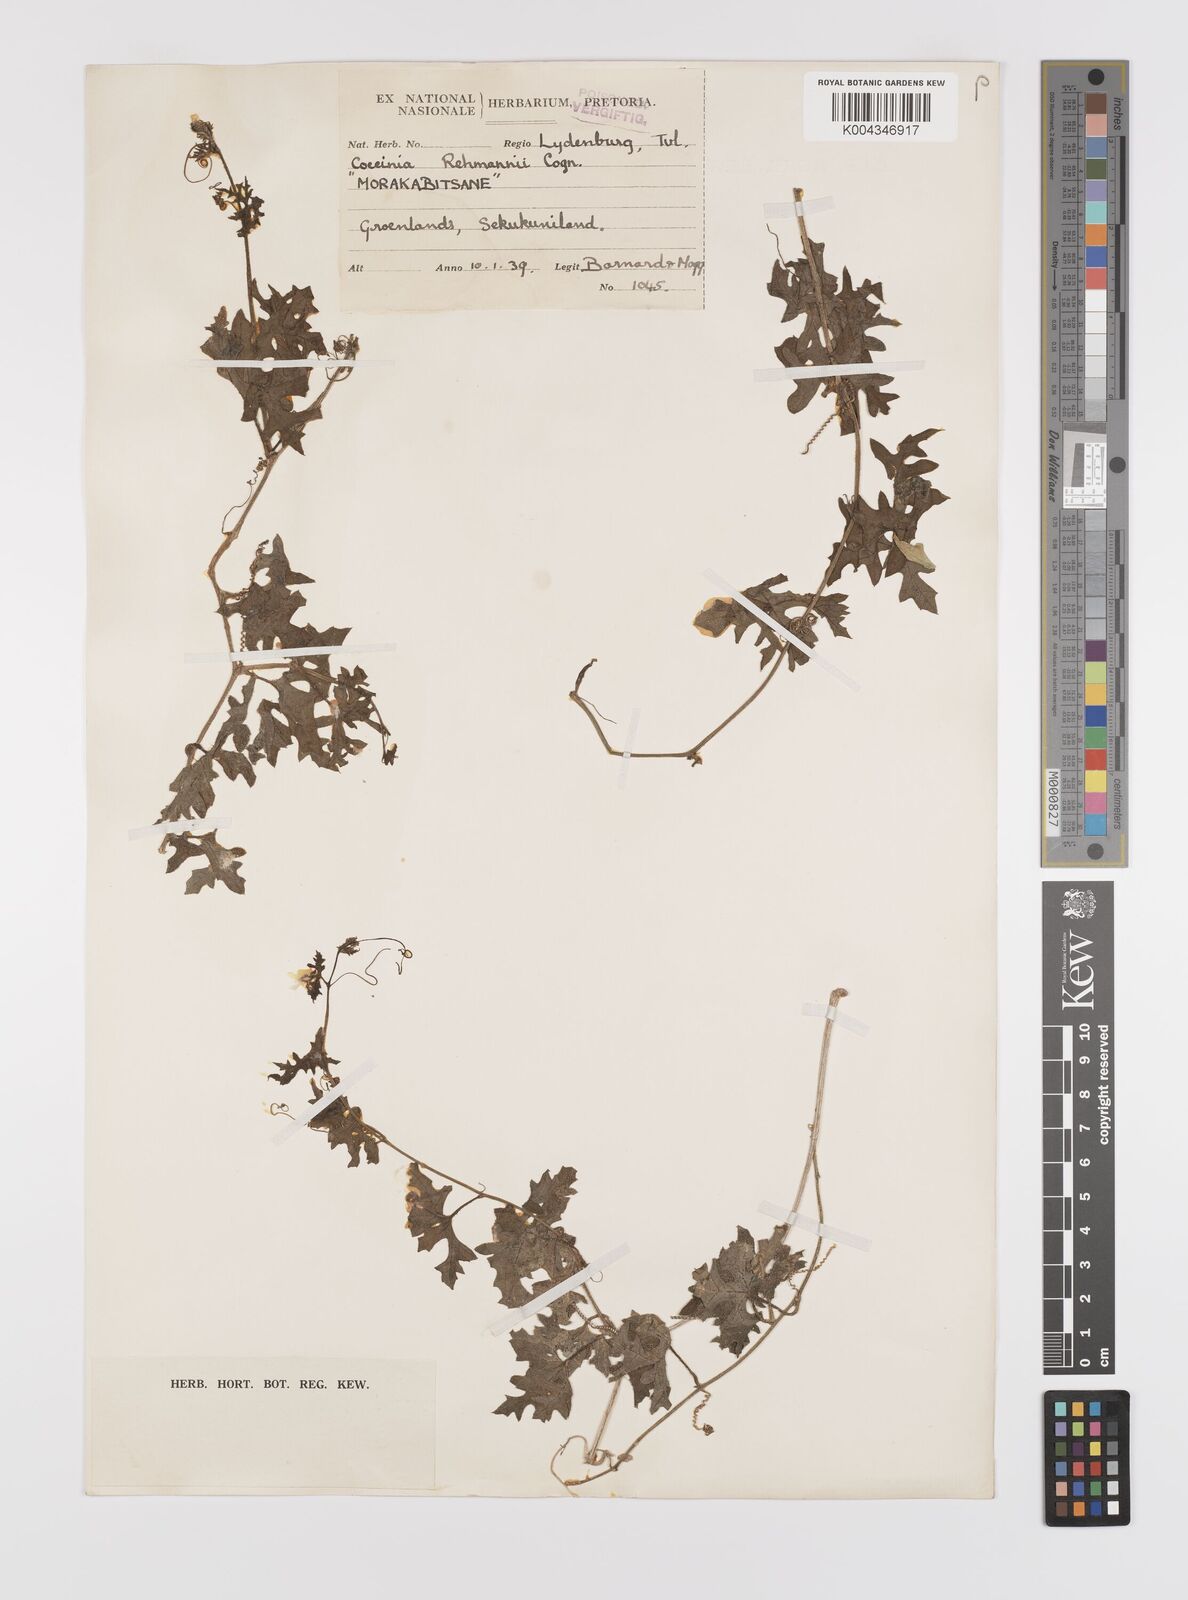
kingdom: Plantae
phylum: Tracheophyta
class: Magnoliopsida
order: Cucurbitales
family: Cucurbitaceae
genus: Coccinia
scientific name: Coccinia rehmannii
